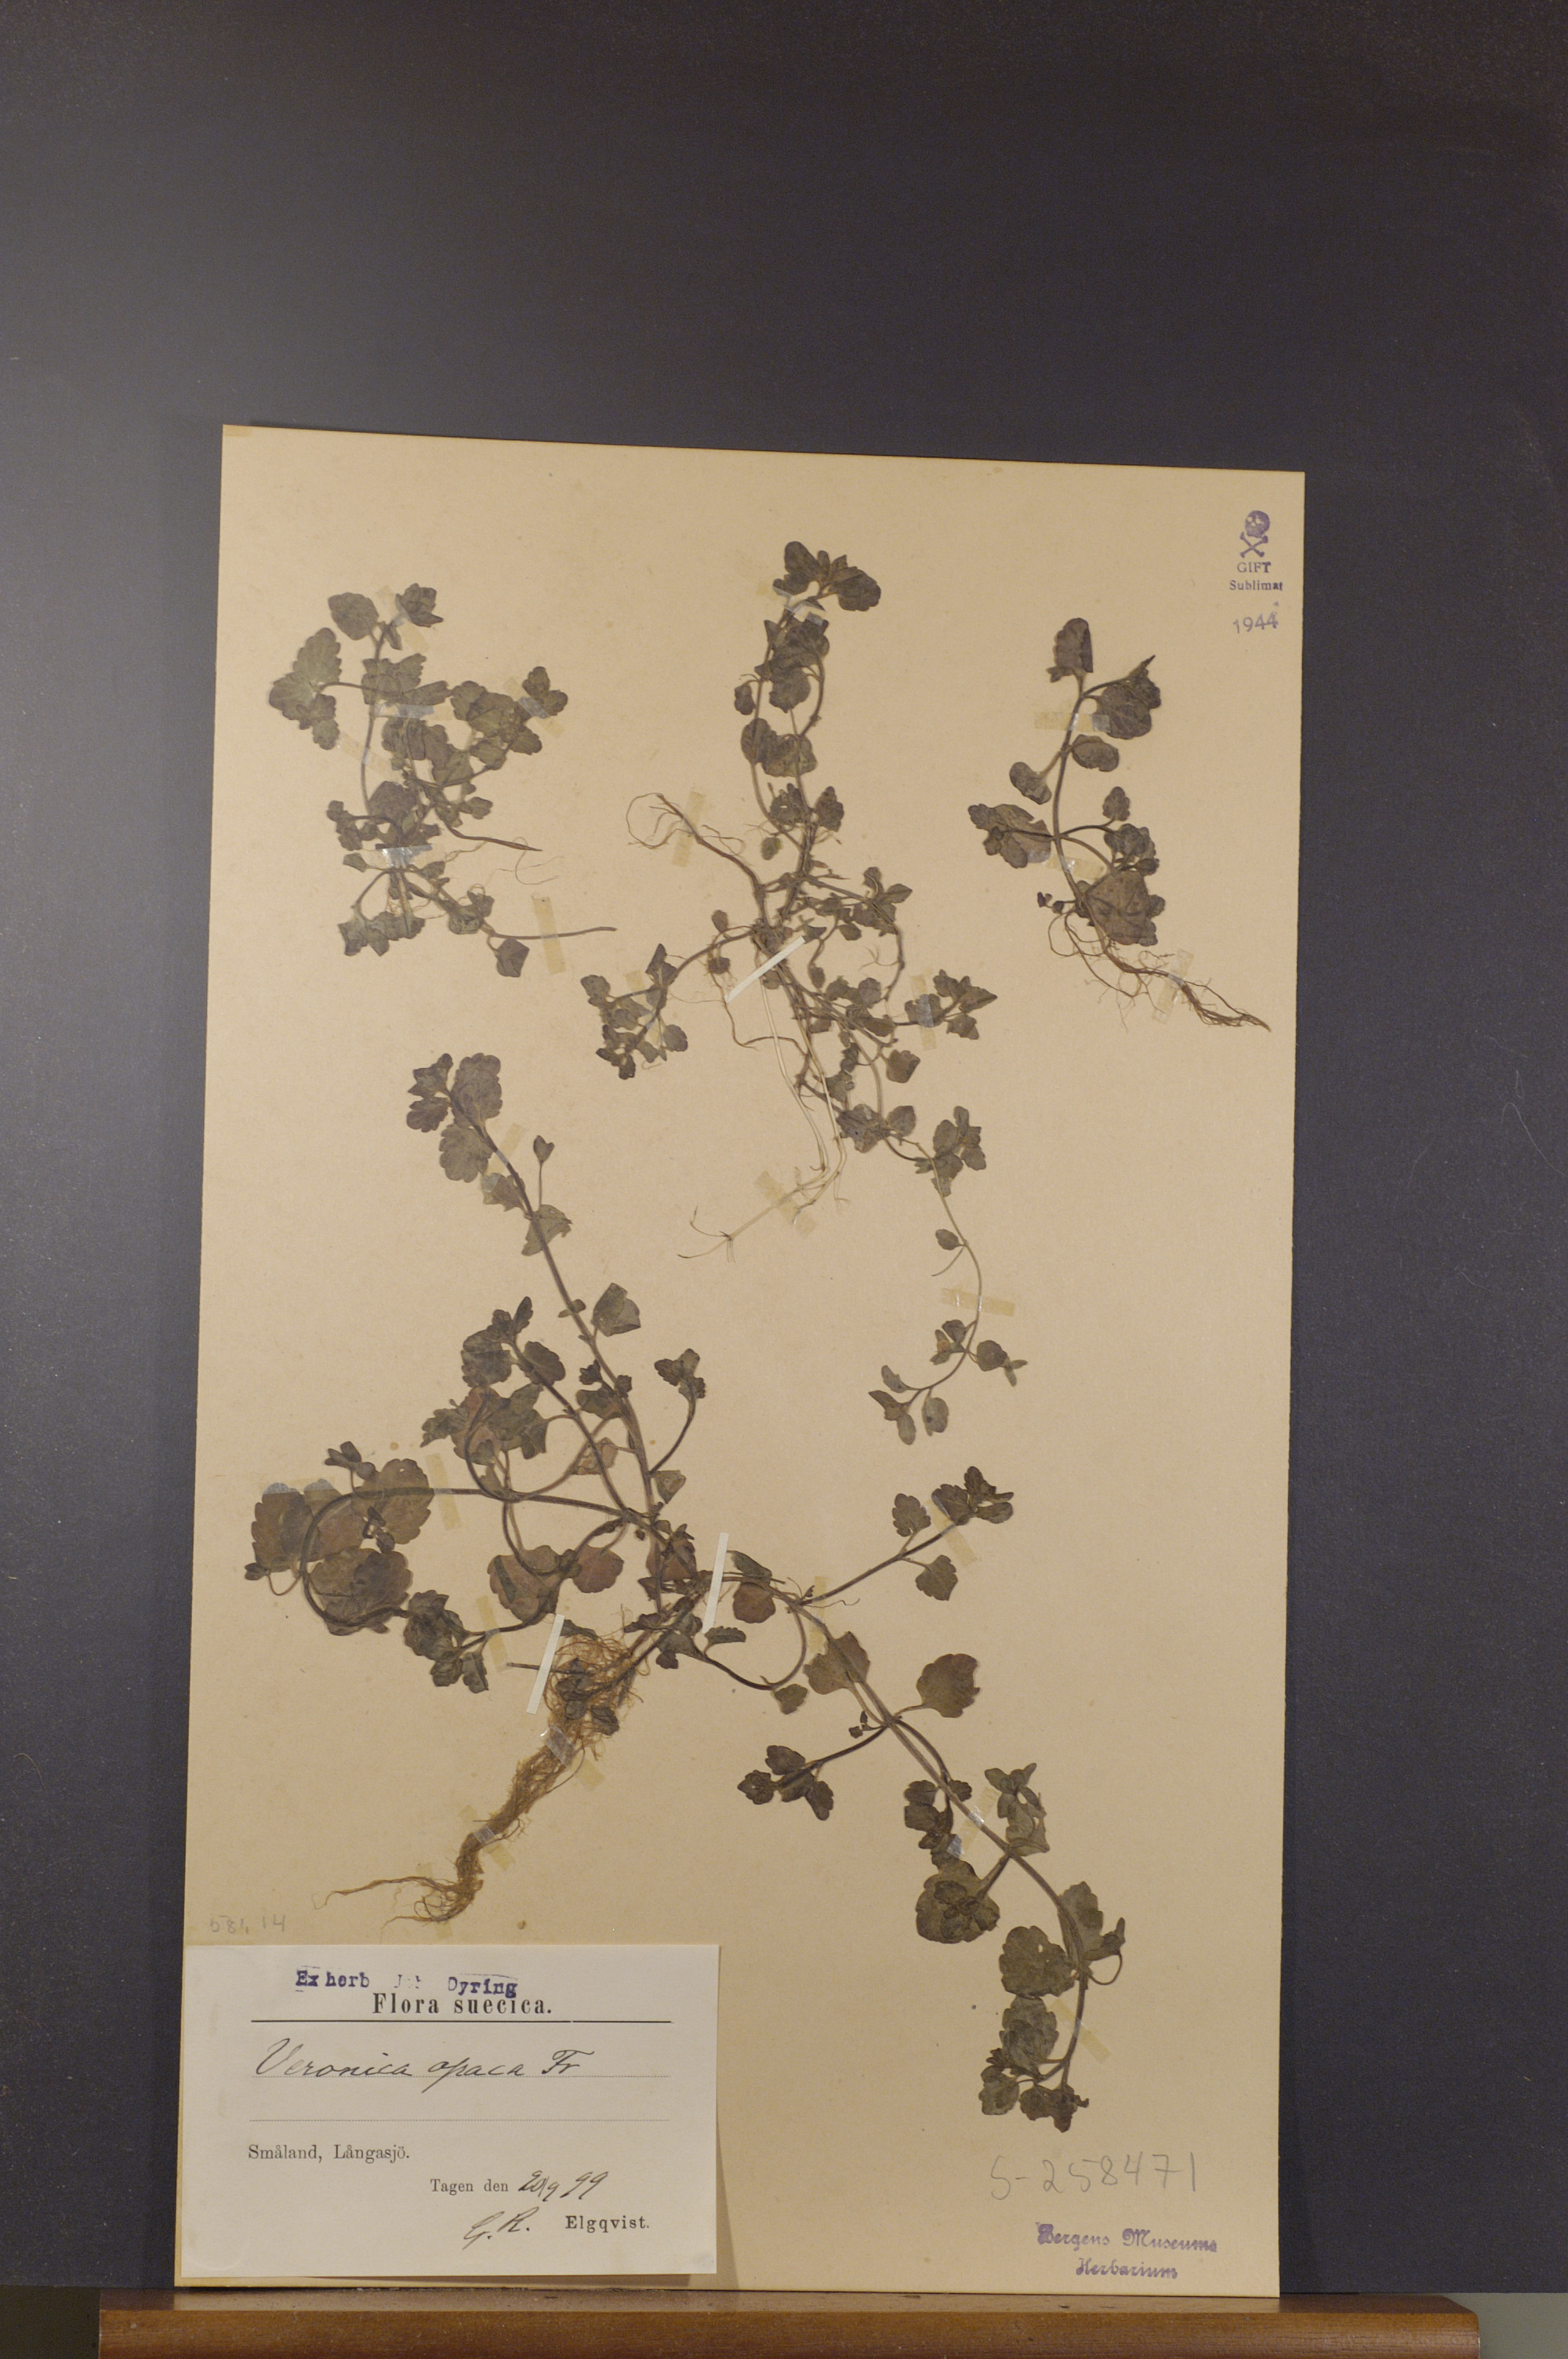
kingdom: Plantae
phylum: Tracheophyta
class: Magnoliopsida
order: Lamiales
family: Plantaginaceae
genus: Veronica
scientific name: Veronica opaca
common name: Dark speedwell
